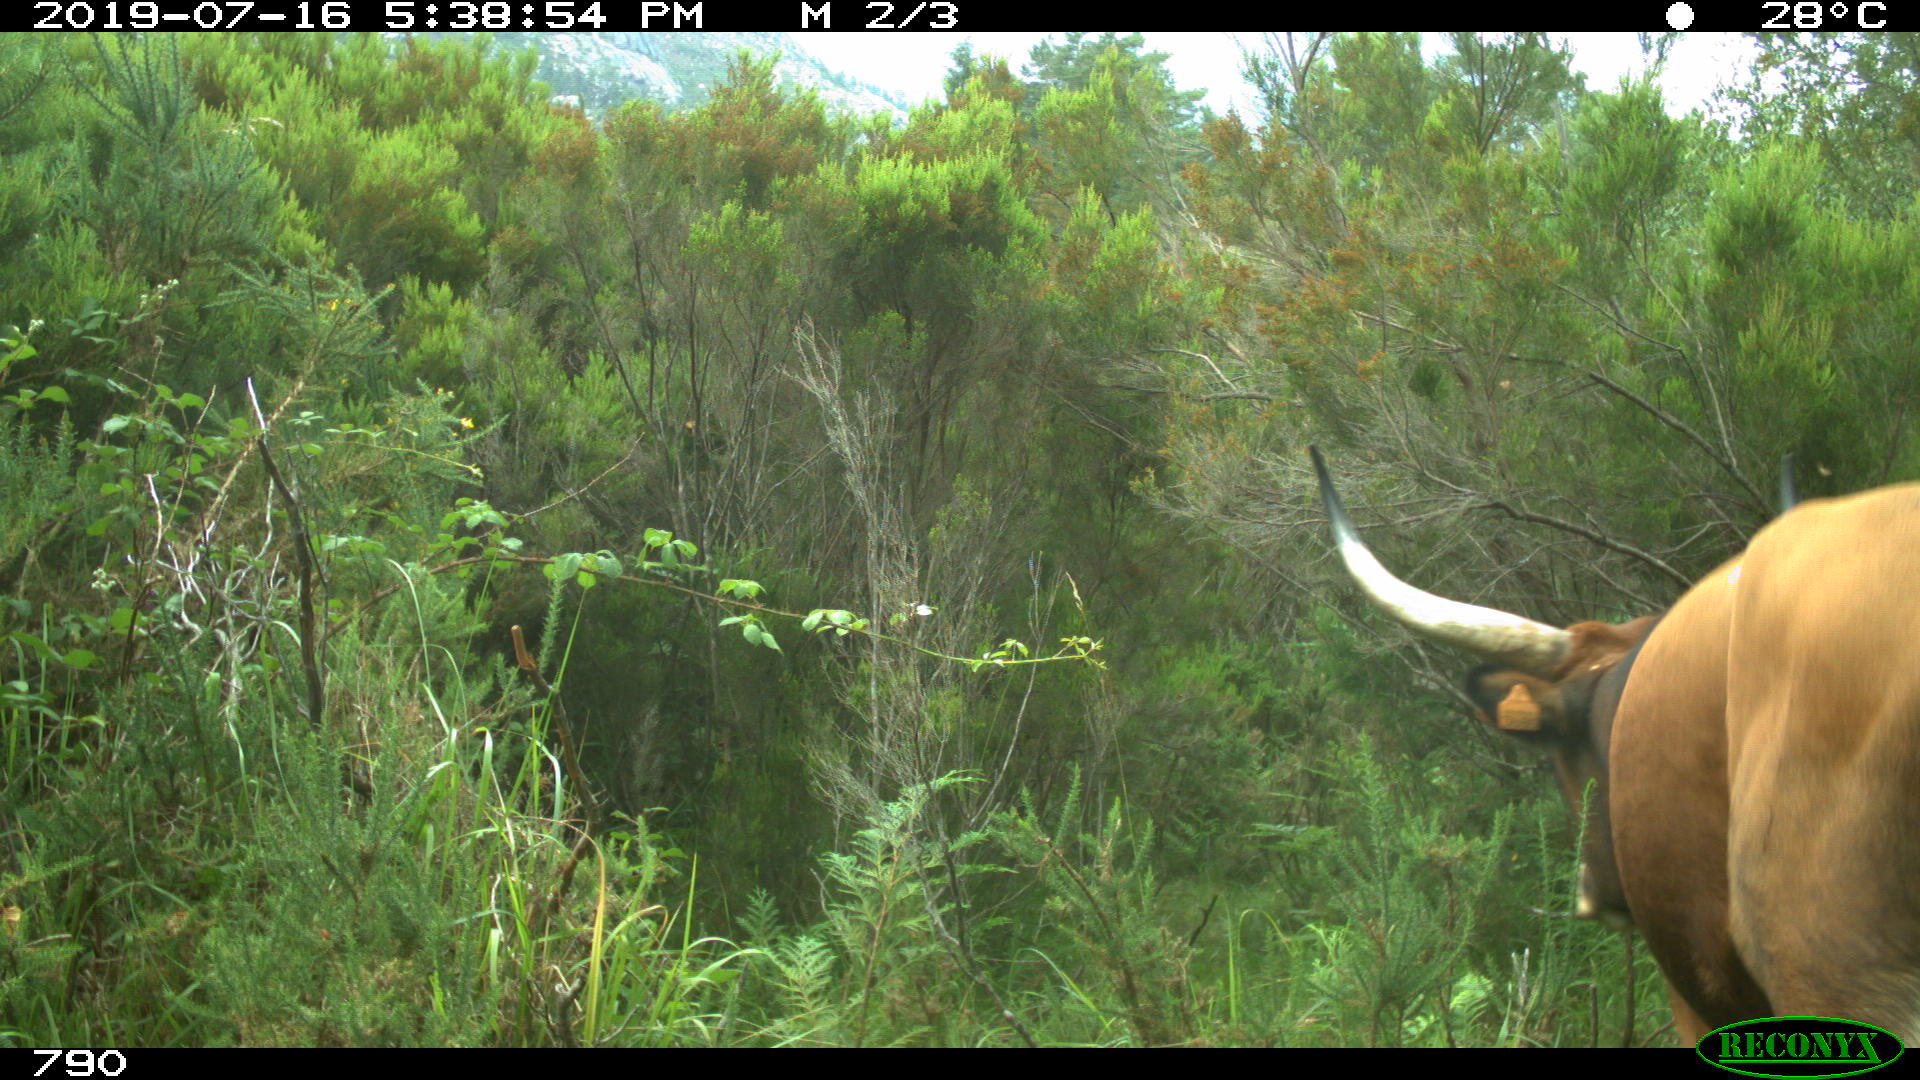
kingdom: Animalia
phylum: Chordata
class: Mammalia
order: Artiodactyla
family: Bovidae
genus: Bos
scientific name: Bos taurus
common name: Domesticated cattle
